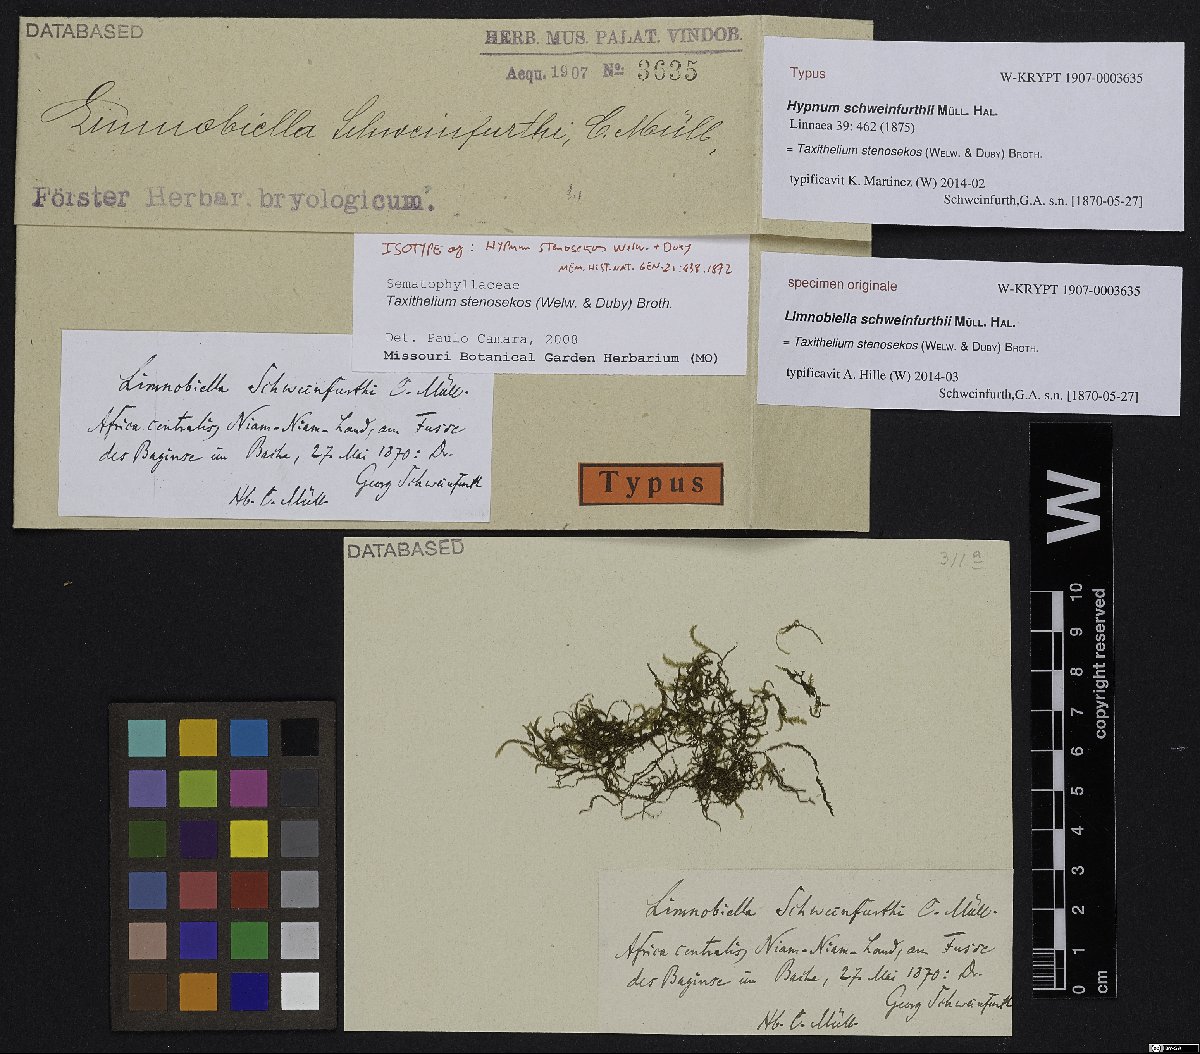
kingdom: Plantae
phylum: Bryophyta
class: Bryopsida
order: Hypnales
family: Taxiphyllaceae
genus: Taxiphyllum
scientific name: Taxiphyllum schweinfurthii
